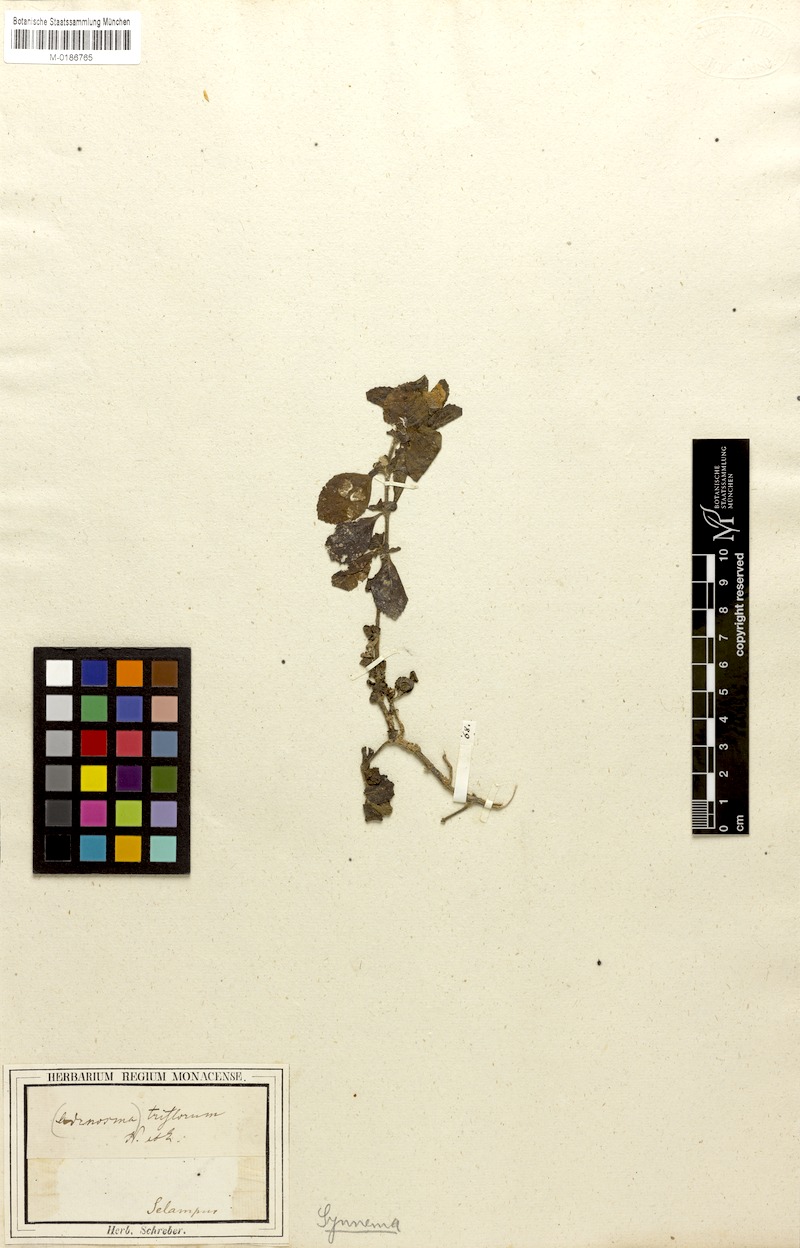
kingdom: Plantae
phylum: Tracheophyta
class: Magnoliopsida
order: Lamiales
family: Acanthaceae
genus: Hygrophila
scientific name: Hygrophila difformis
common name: Water-wisteria
